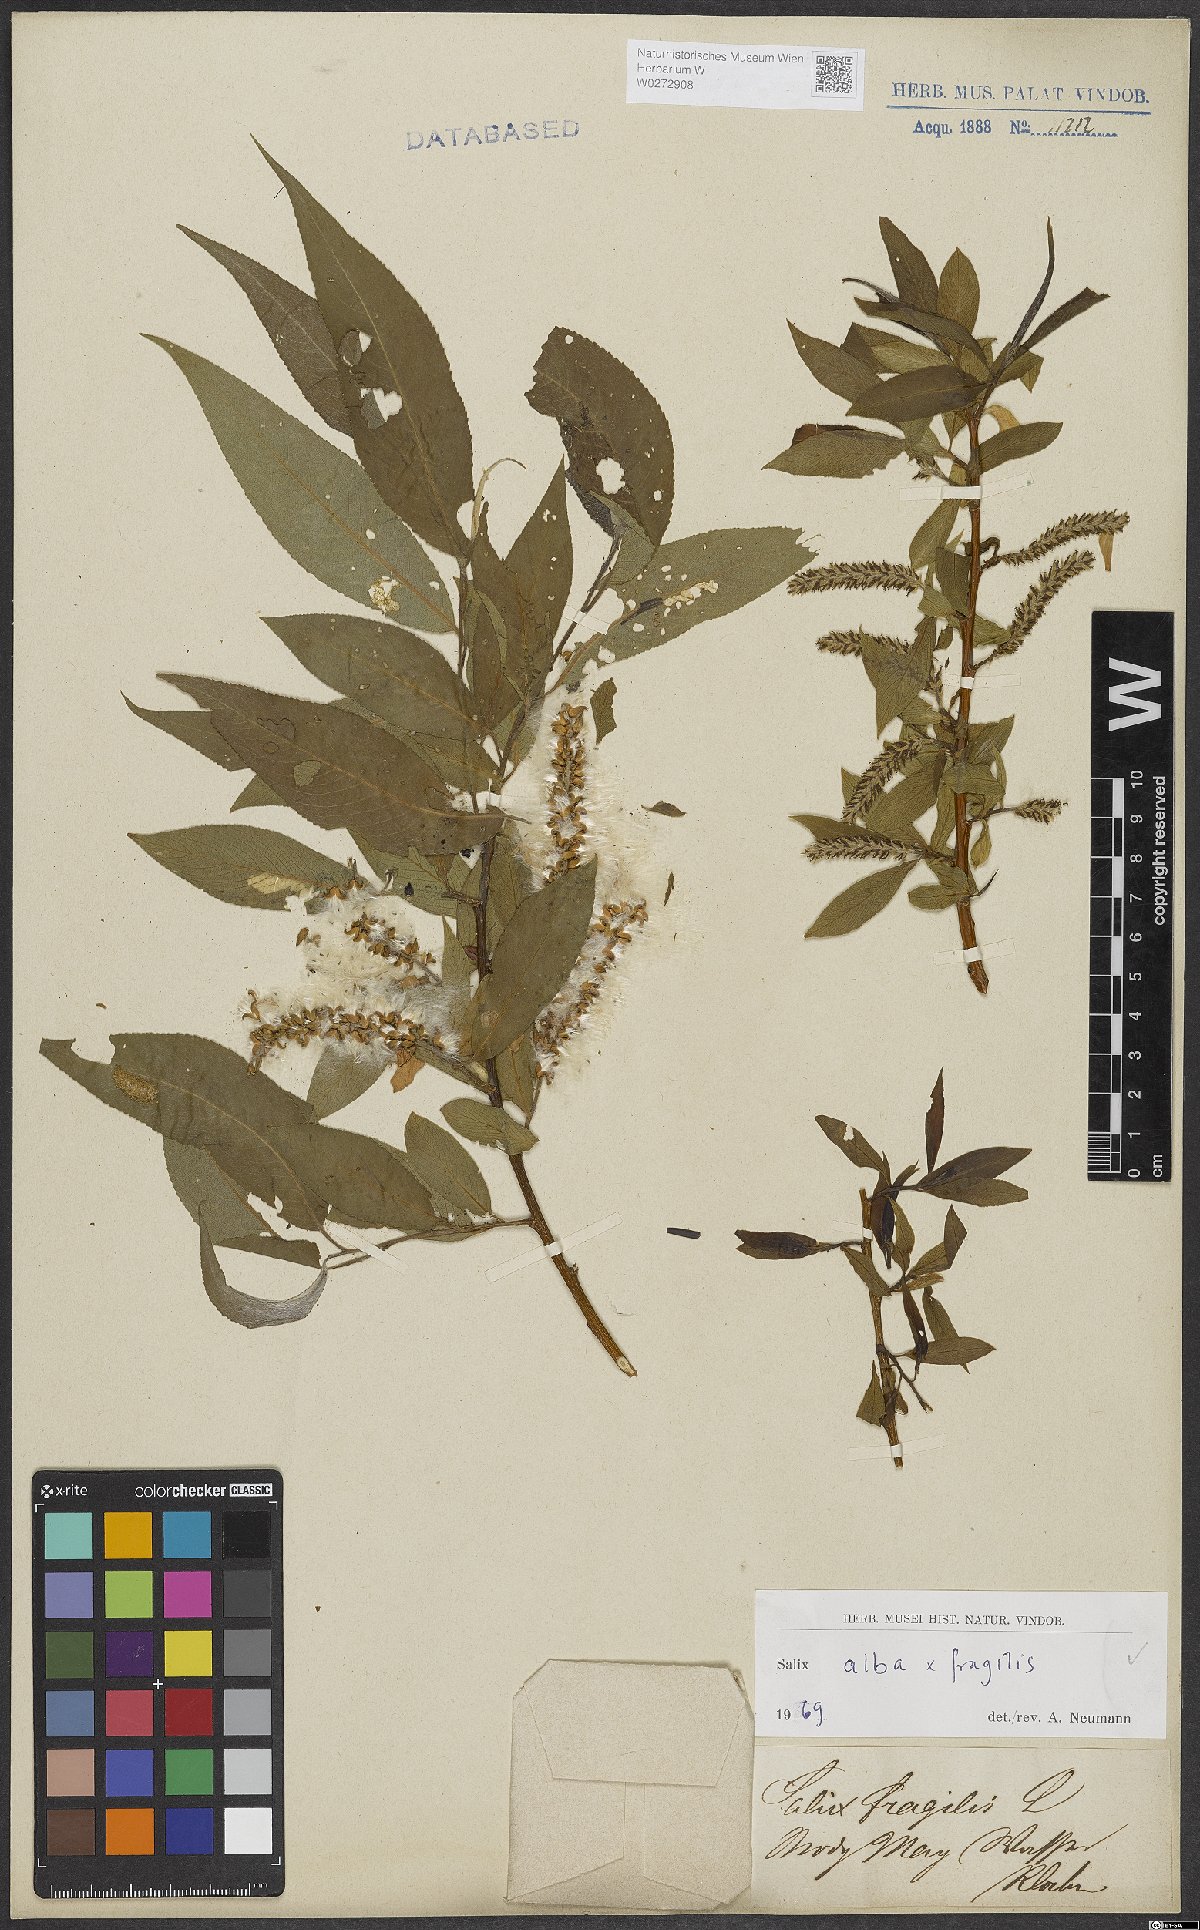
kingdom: Plantae
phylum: Tracheophyta
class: Magnoliopsida
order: Malpighiales
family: Salicaceae
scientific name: Salicaceae
